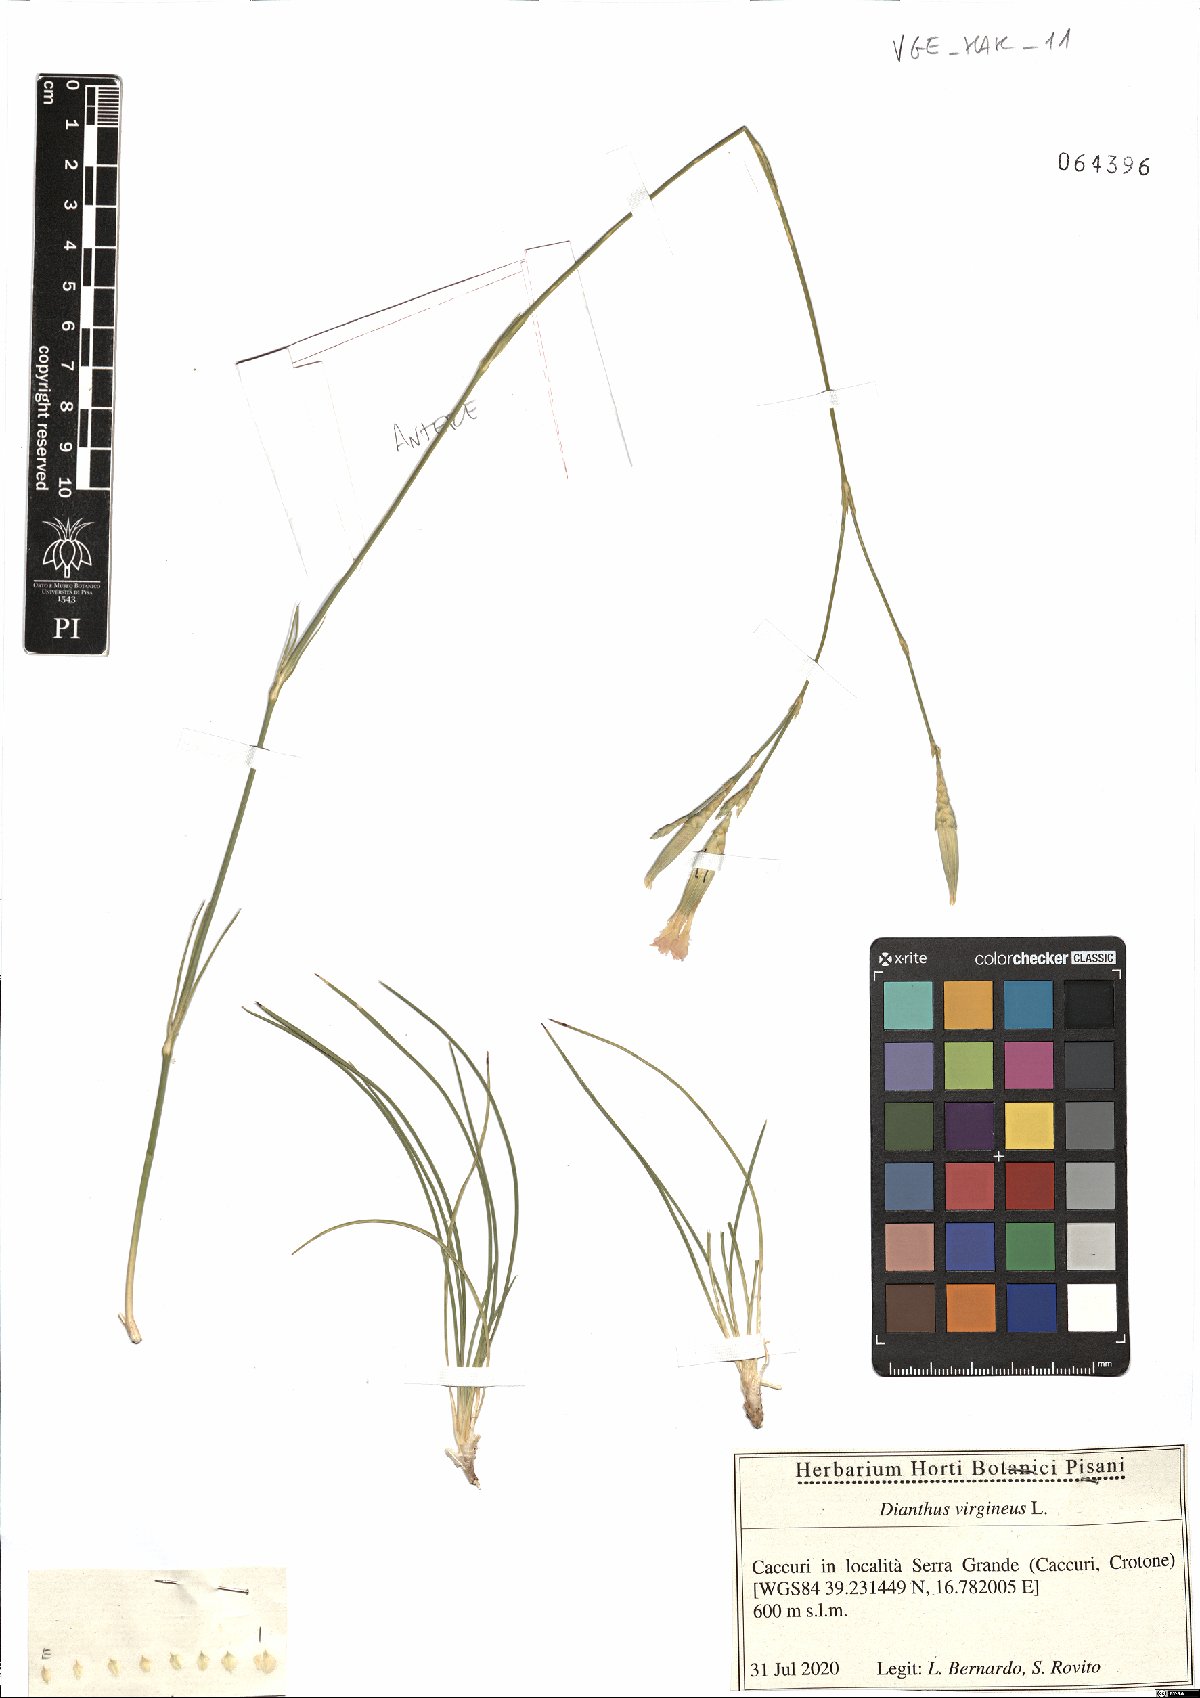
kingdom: Plantae
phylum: Tracheophyta
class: Magnoliopsida
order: Caryophyllales
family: Caryophyllaceae
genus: Dianthus
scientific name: Dianthus virgineus
